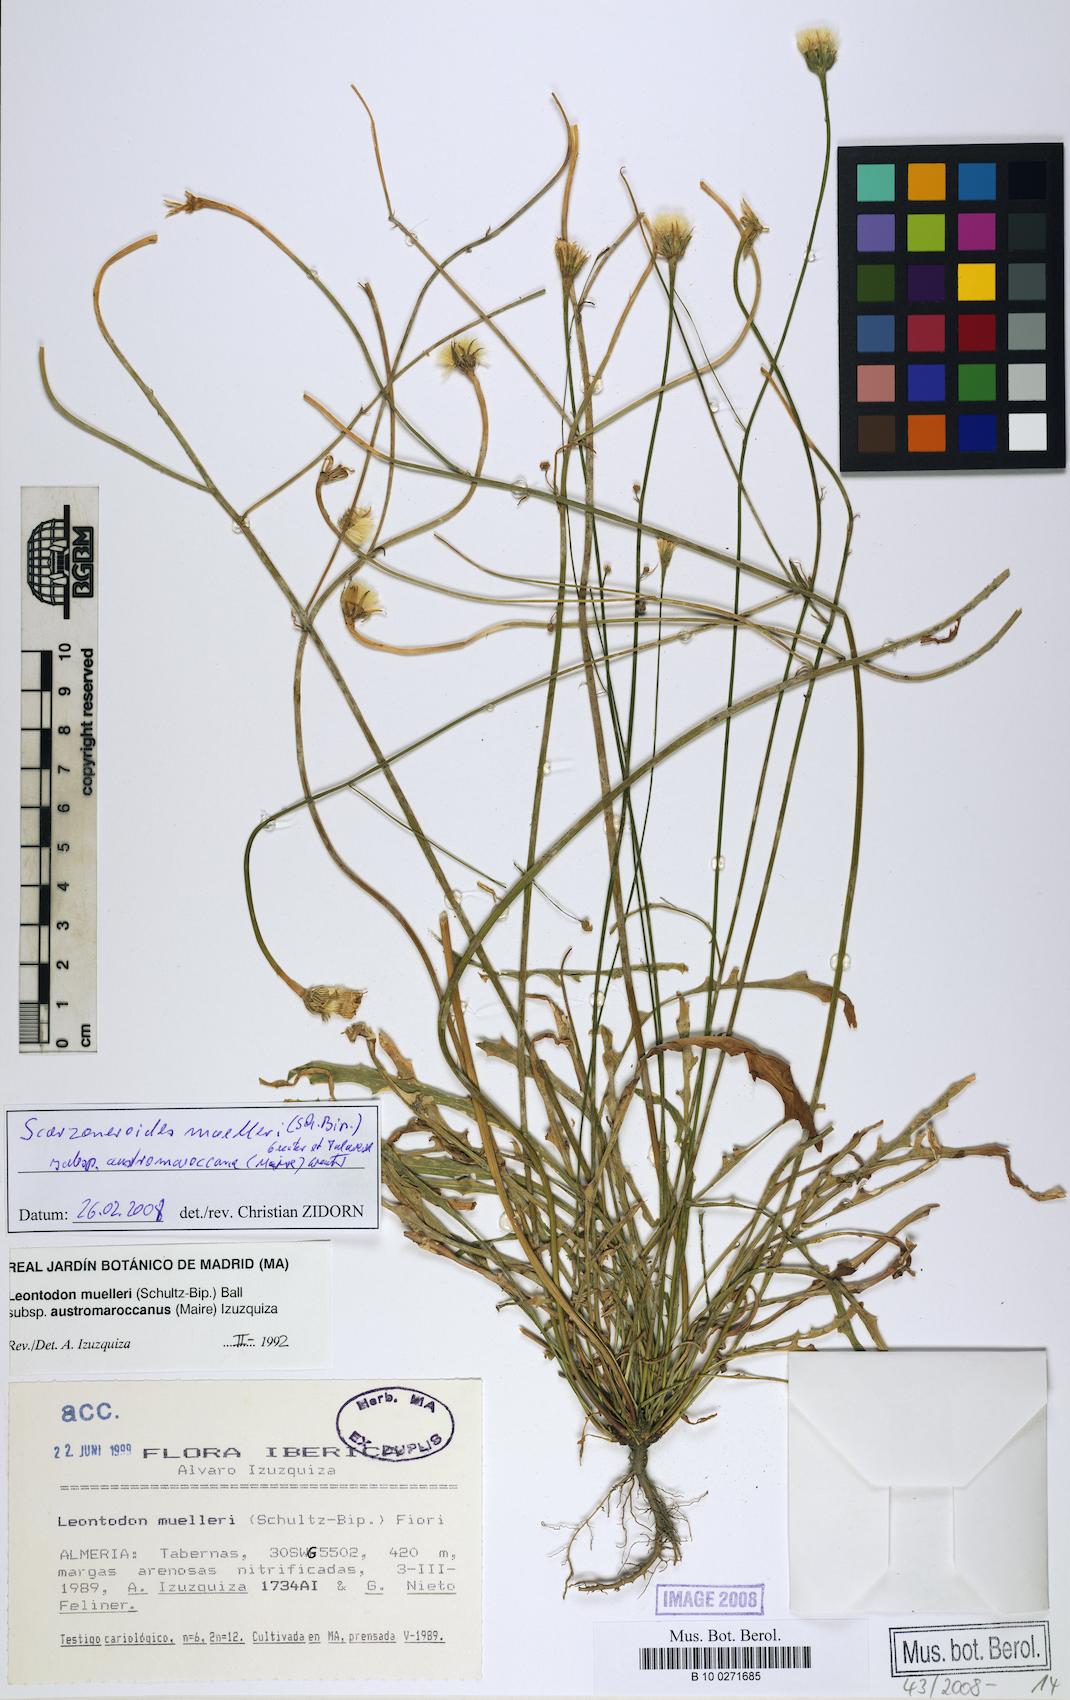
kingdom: Plantae
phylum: Tracheophyta
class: Magnoliopsida
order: Asterales
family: Asteraceae
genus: Scorzoneroides
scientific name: Scorzoneroides muelleri
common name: Daisy
